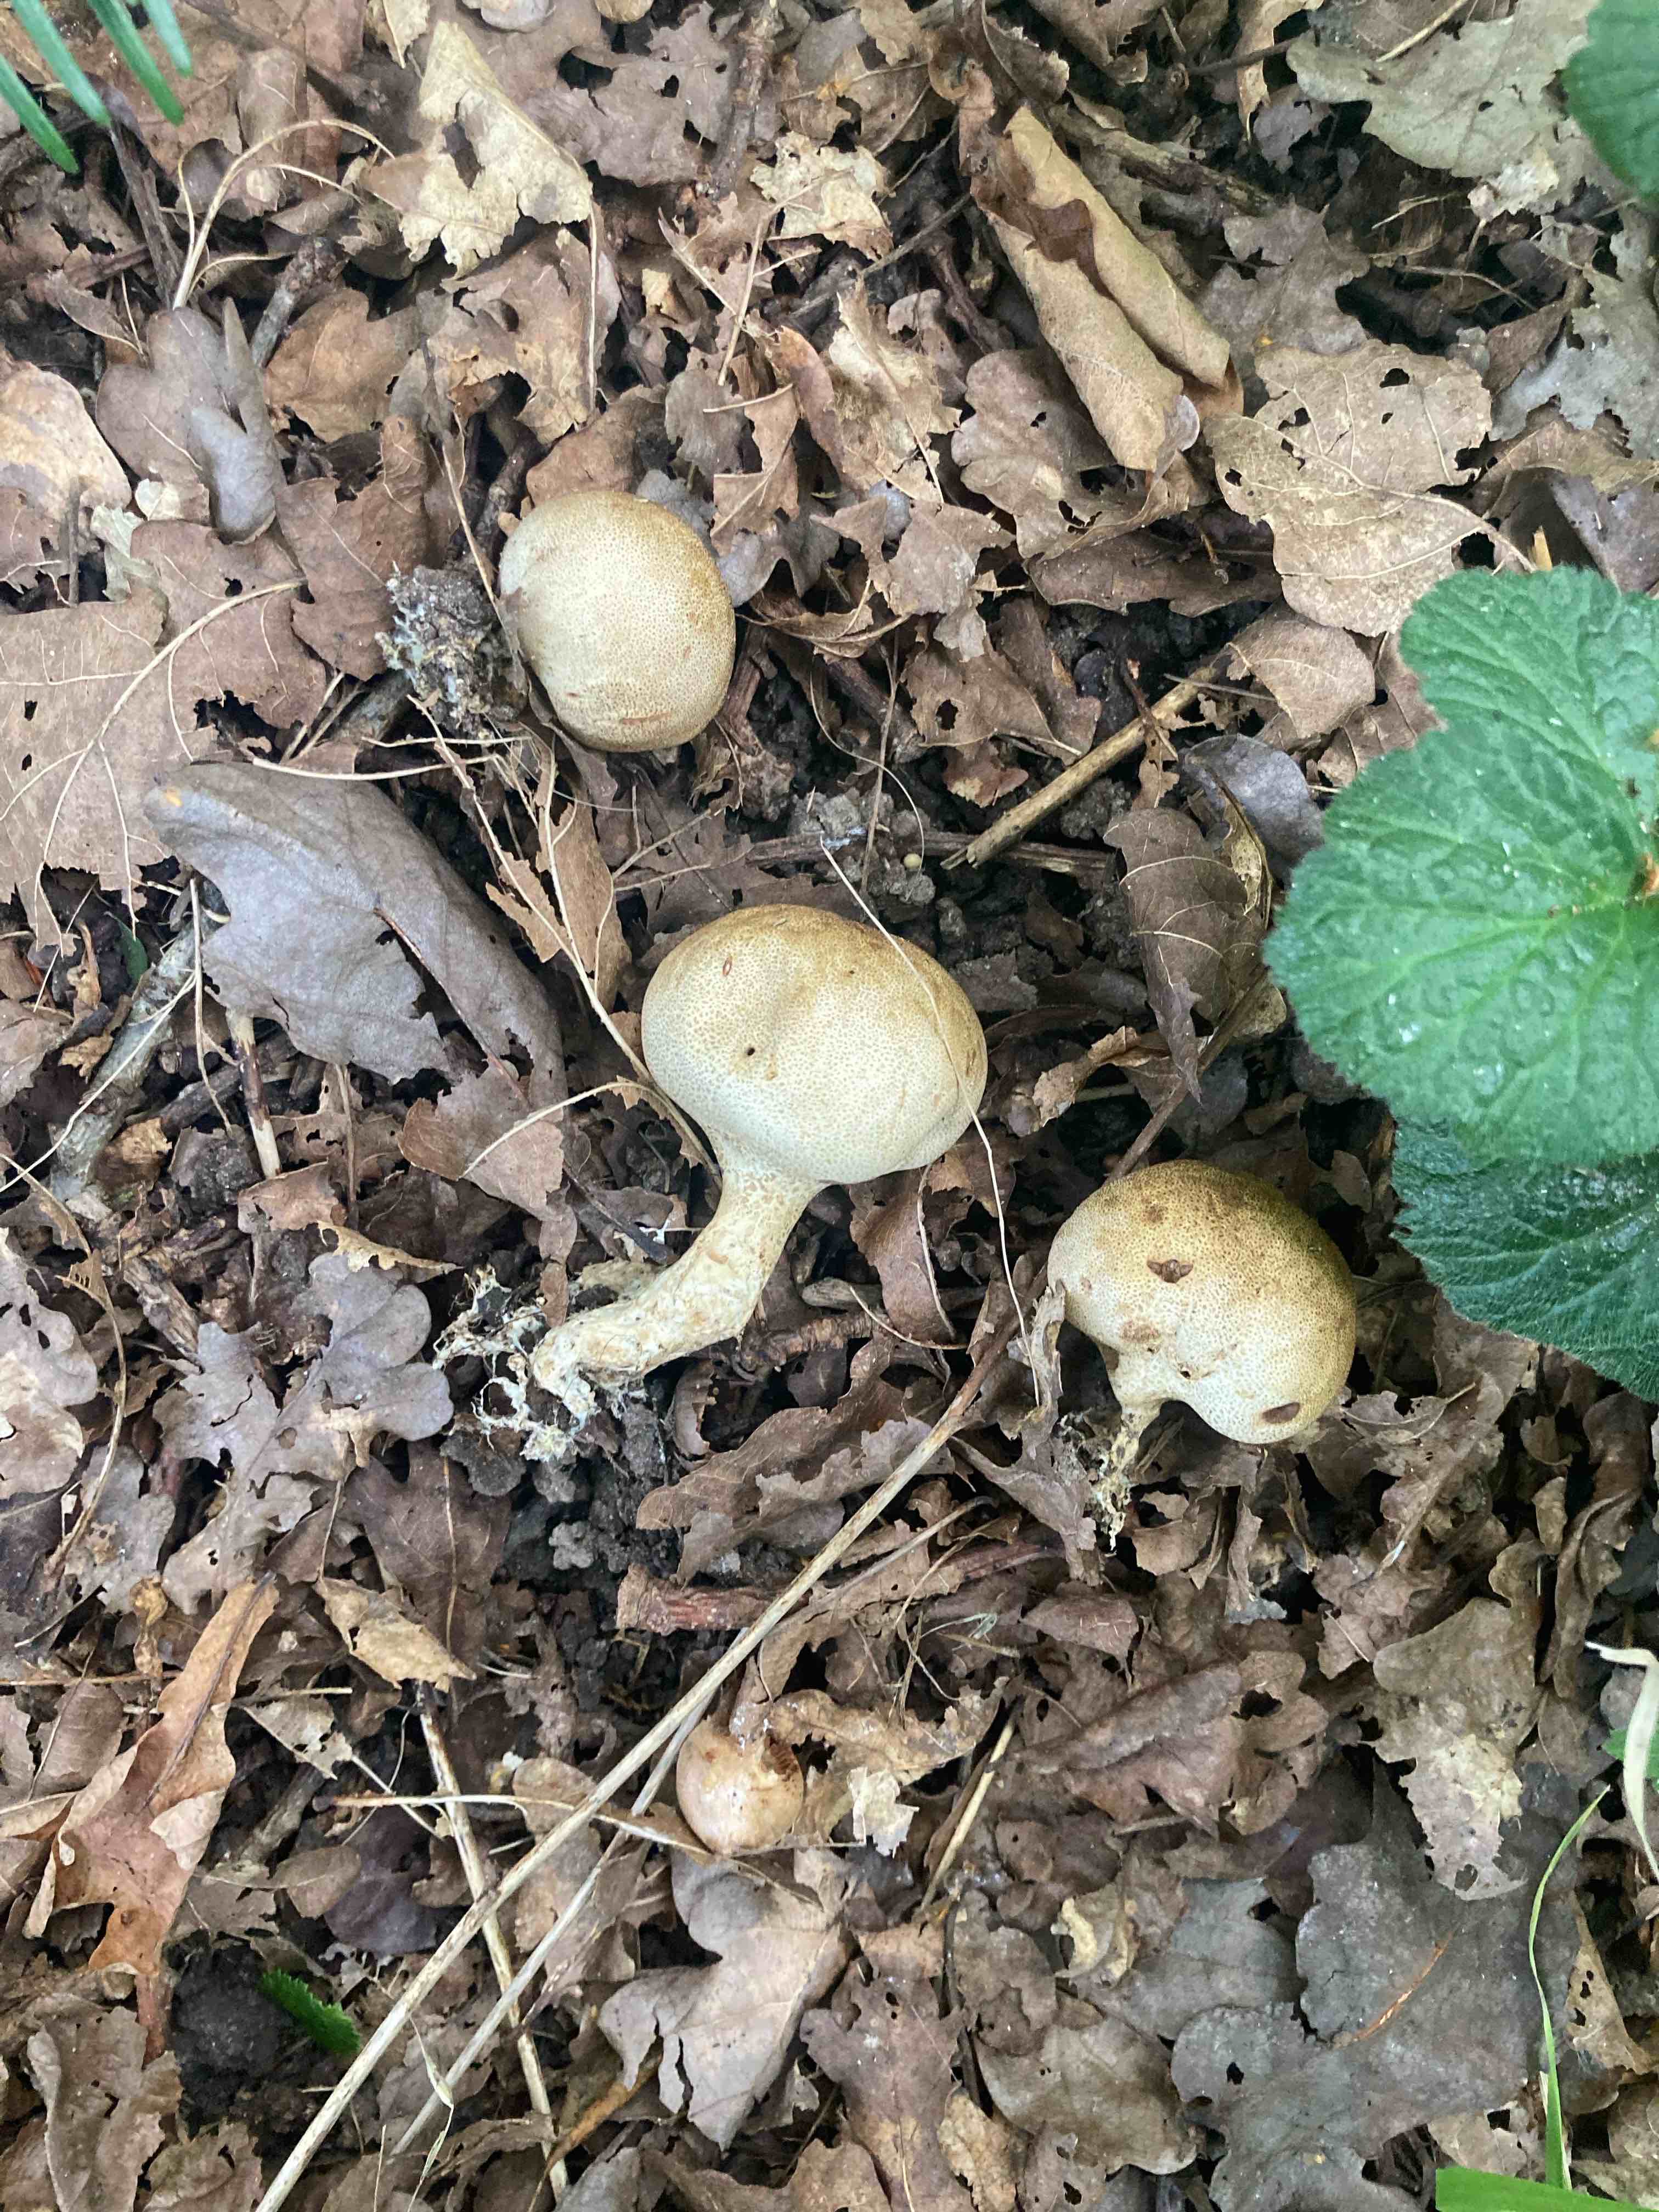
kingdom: Fungi
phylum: Basidiomycota
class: Agaricomycetes
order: Boletales
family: Sclerodermataceae
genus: Scleroderma
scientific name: Scleroderma areolatum
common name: plettet bruskbold
